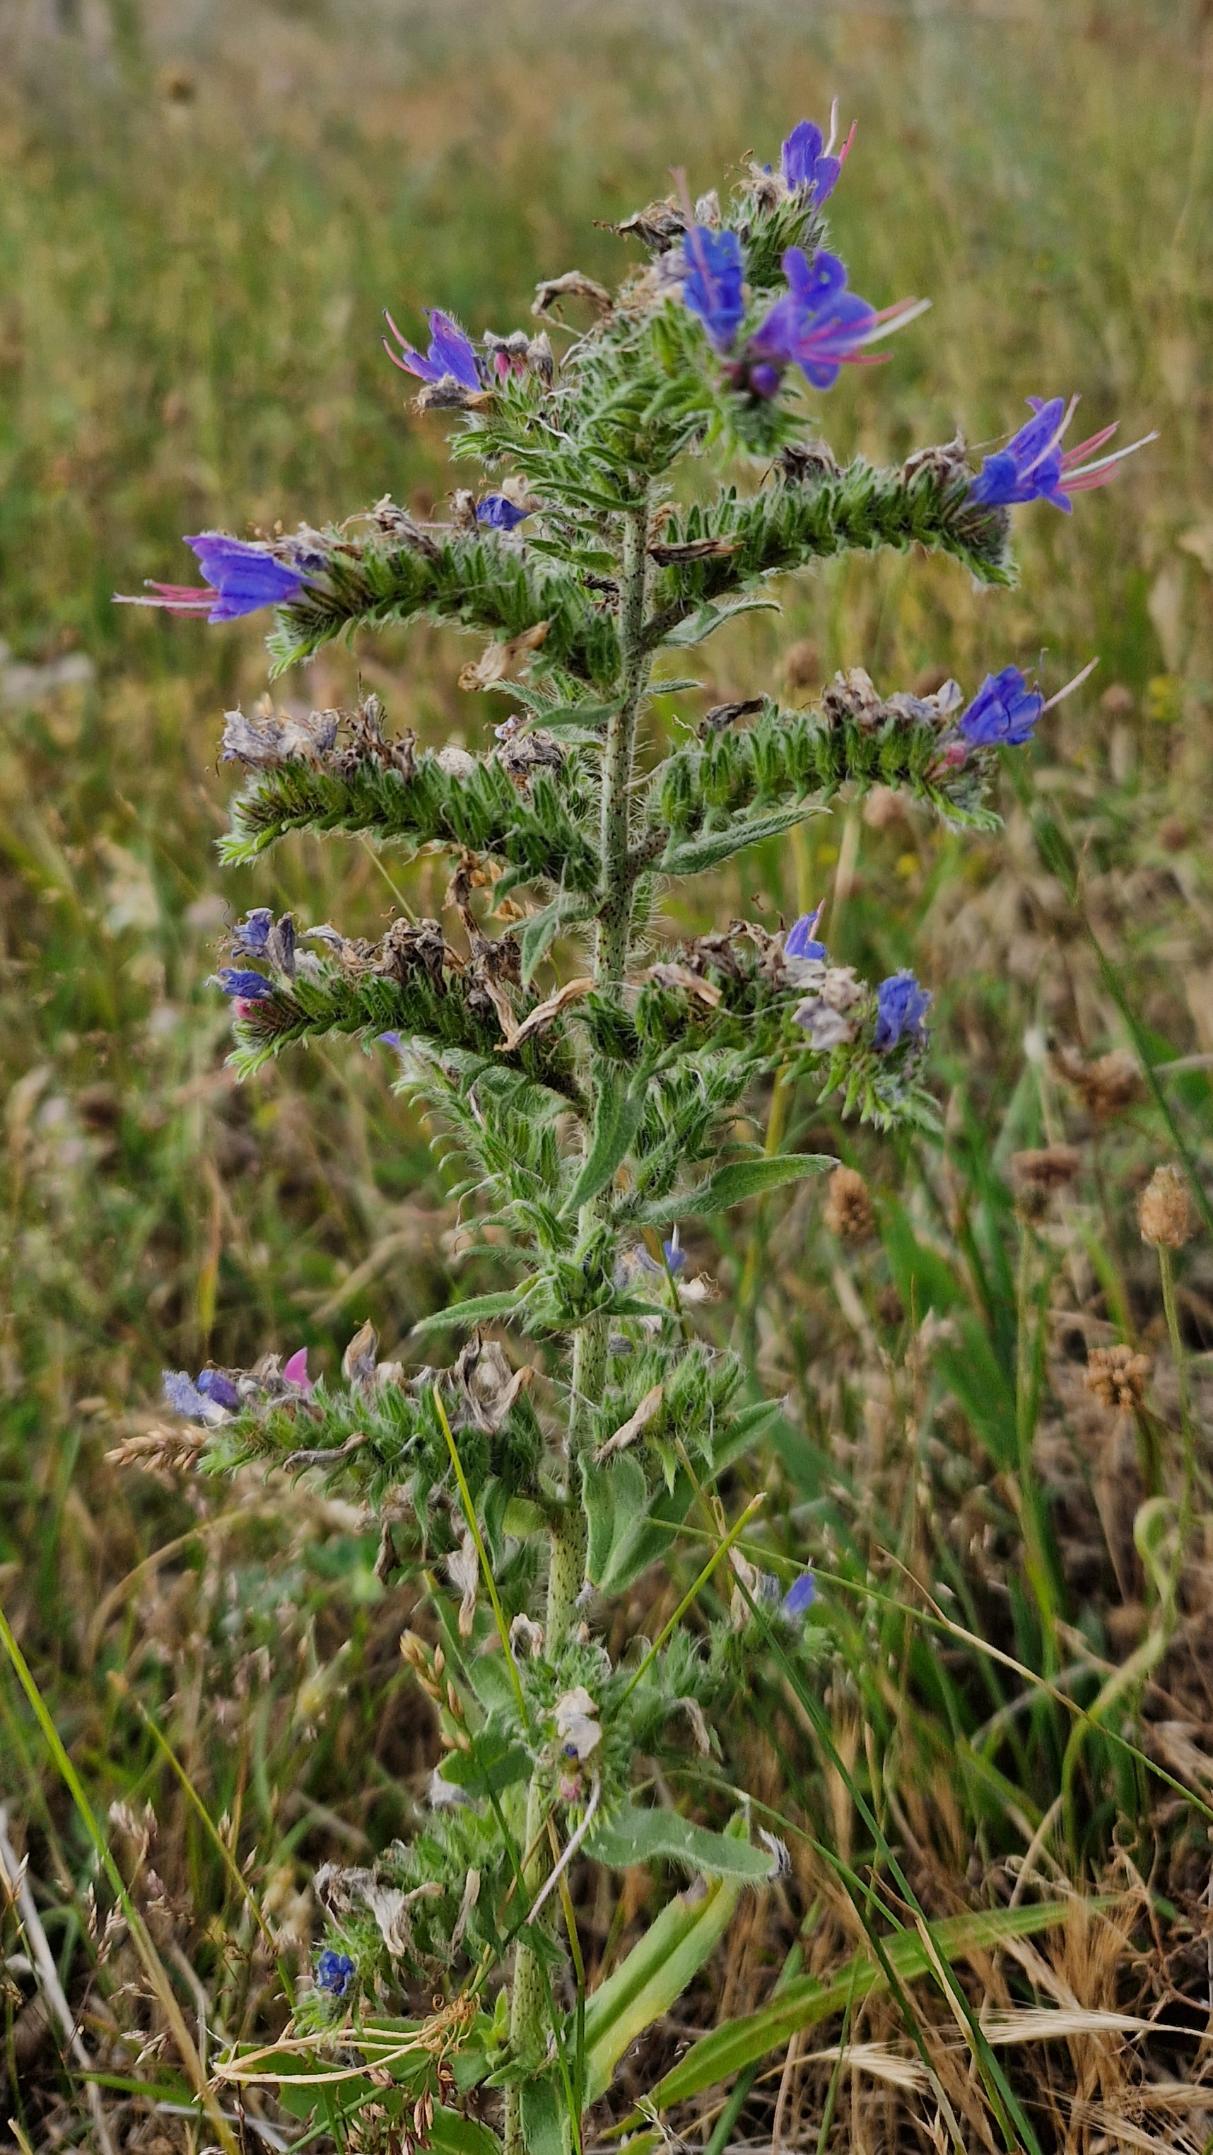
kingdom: Plantae
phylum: Tracheophyta
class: Magnoliopsida
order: Boraginales
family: Boraginaceae
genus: Echium
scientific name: Echium vulgare
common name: Slangehoved
